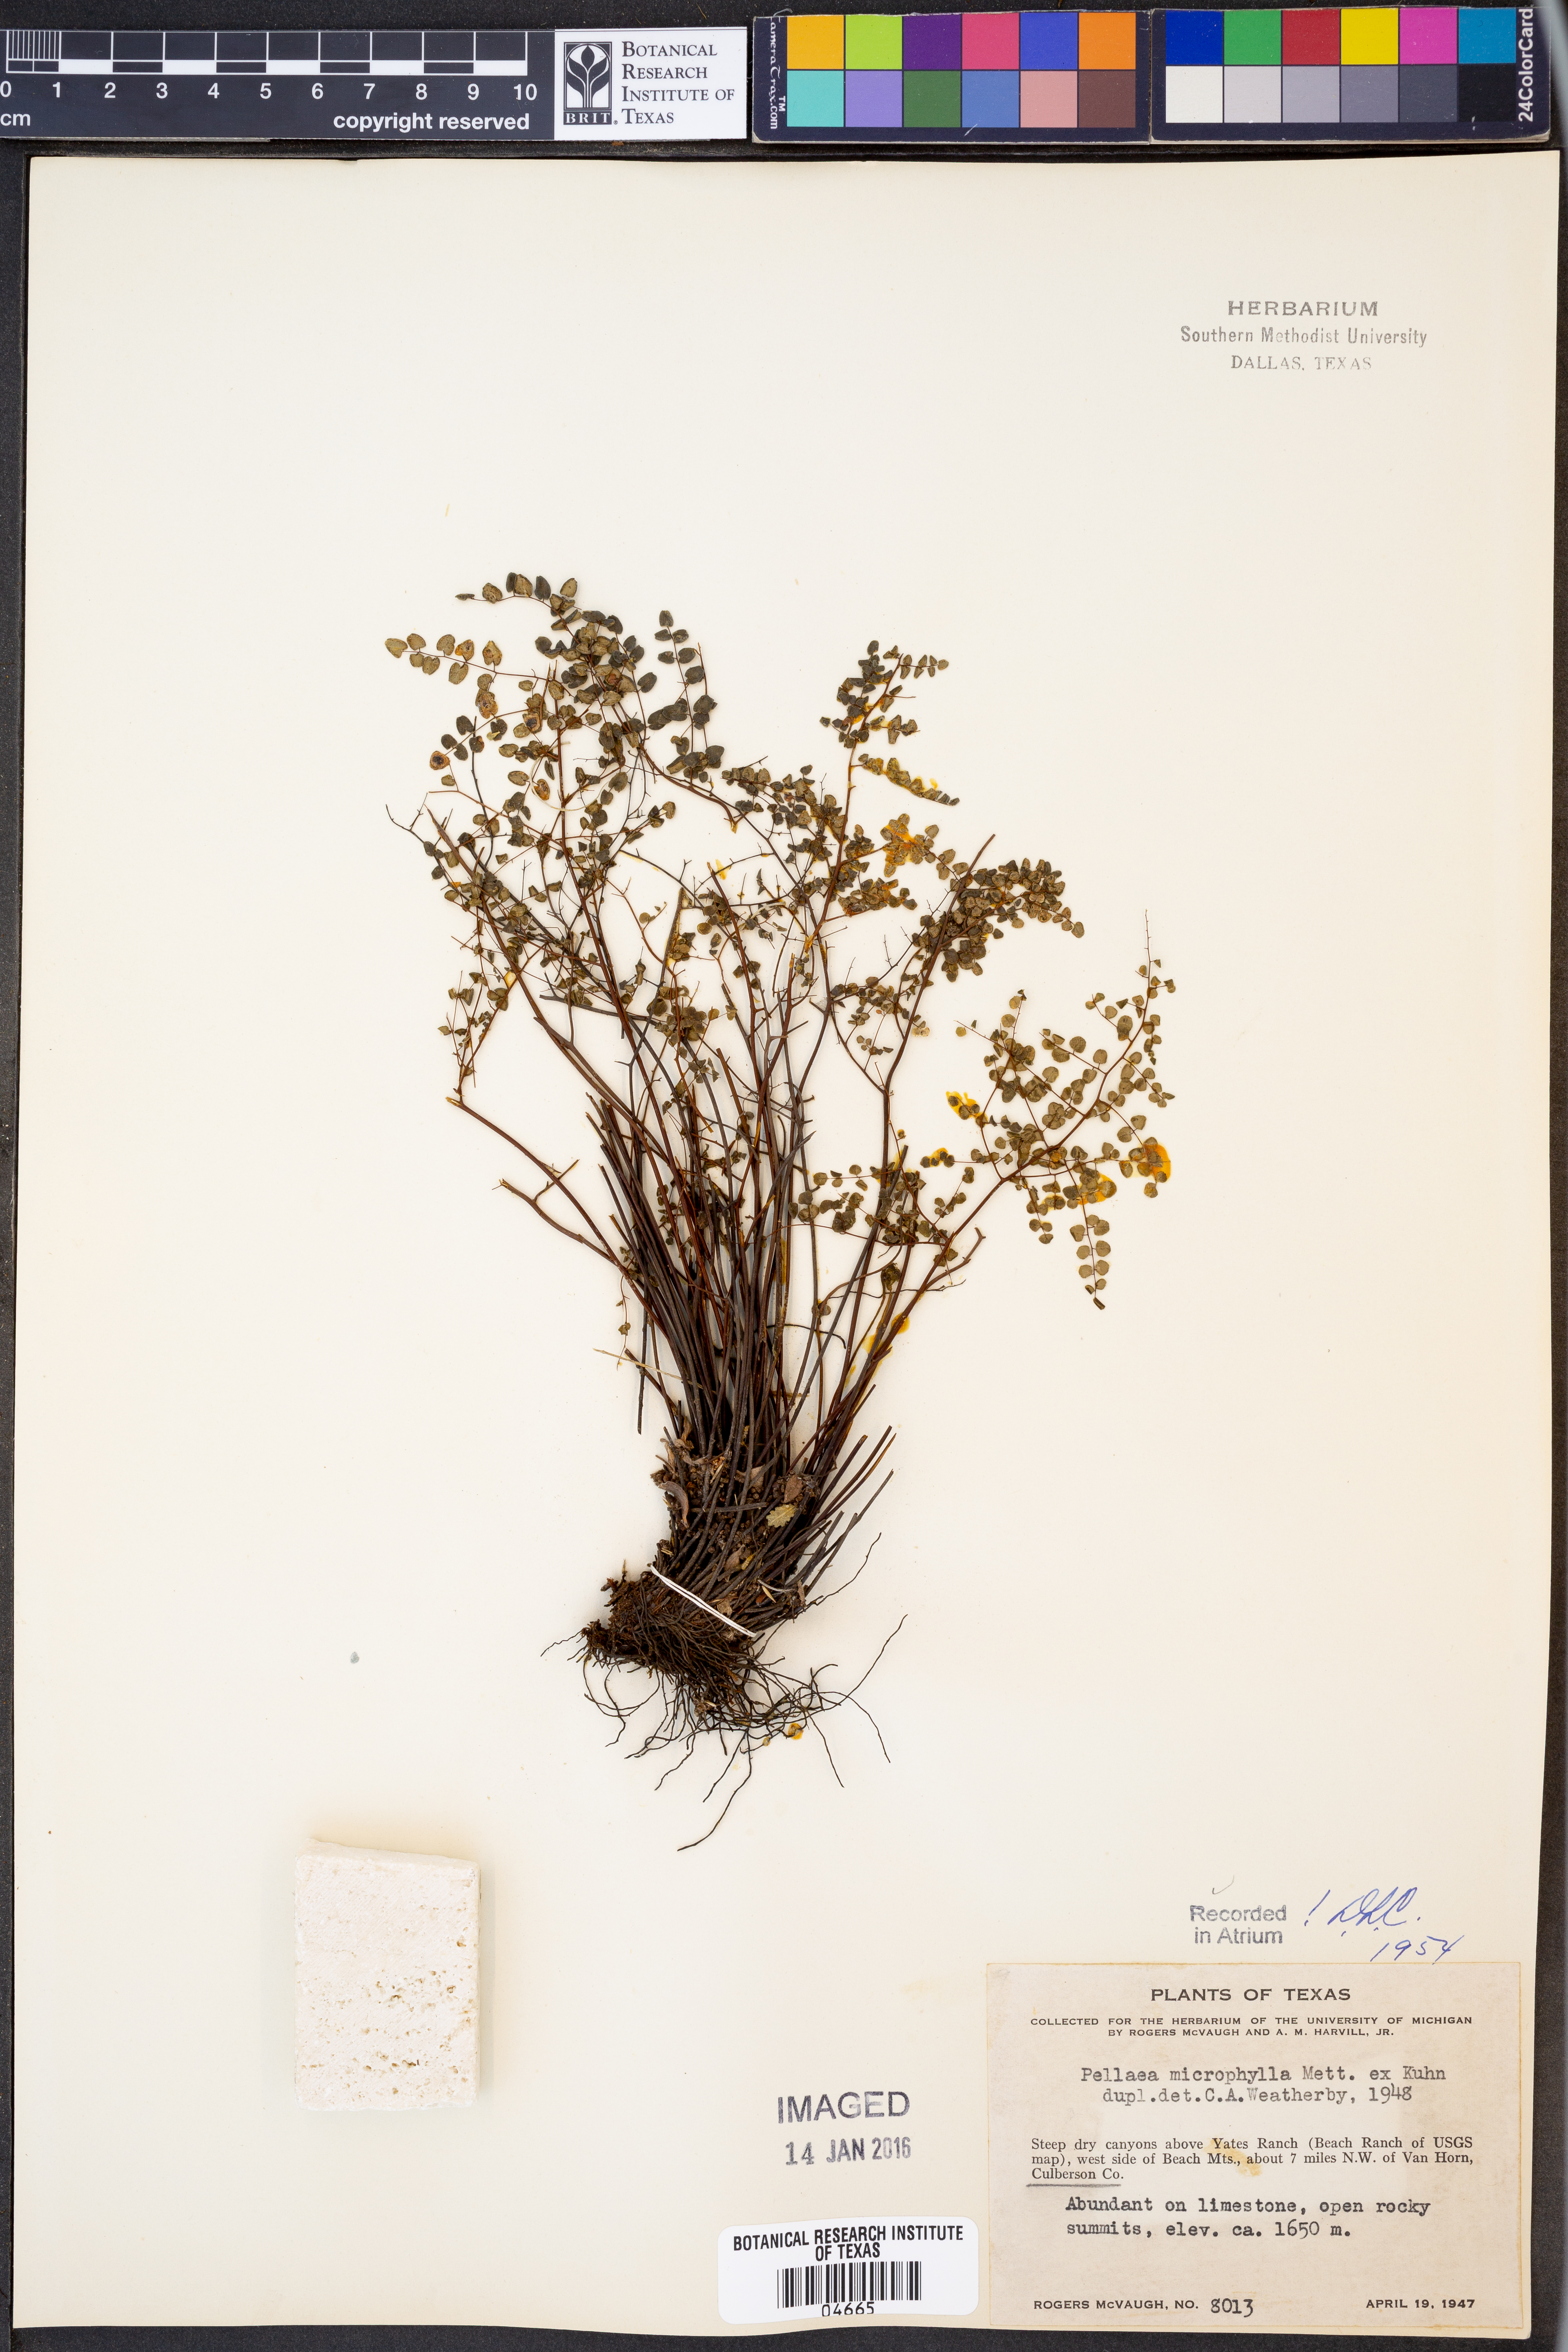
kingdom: Plantae
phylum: Tracheophyta
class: Polypodiopsida
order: Polypodiales
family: Pteridaceae
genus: Lytoneuron
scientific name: Lytoneuron microphyllum
